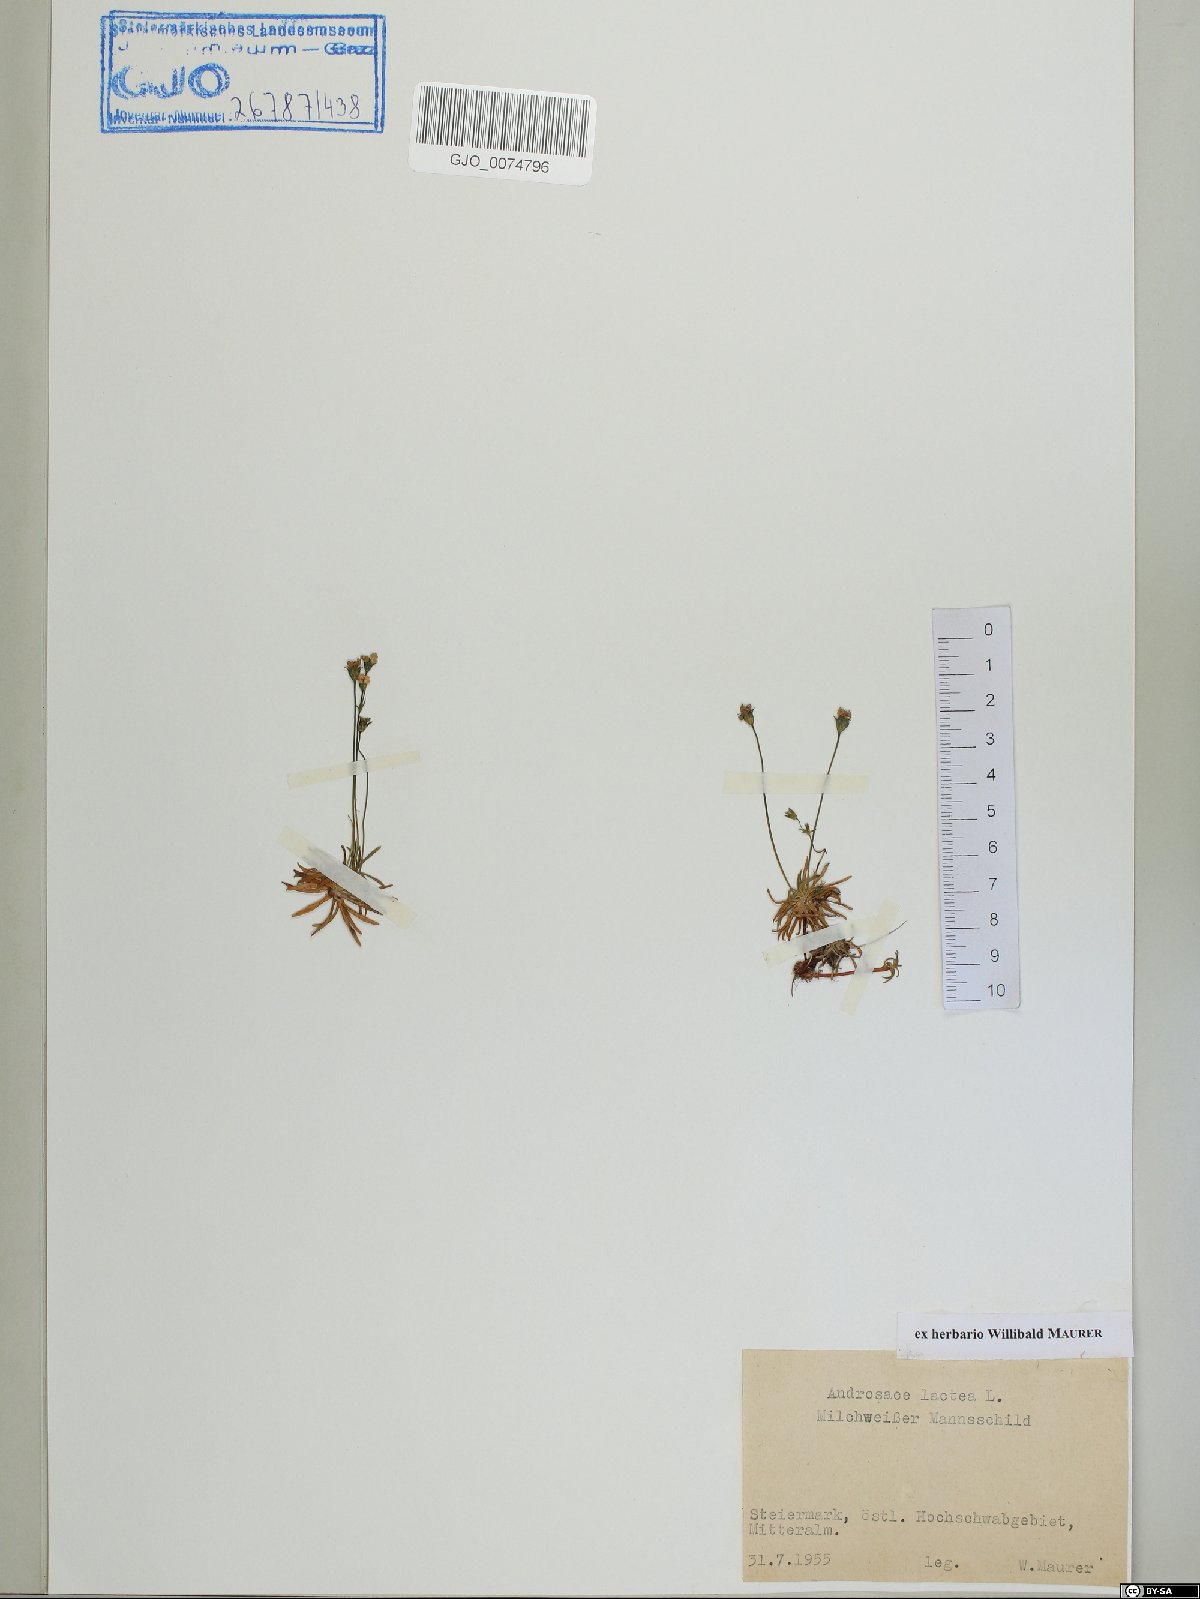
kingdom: Plantae
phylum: Tracheophyta
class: Magnoliopsida
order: Ericales
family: Primulaceae
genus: Androsace
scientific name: Androsace lactea
